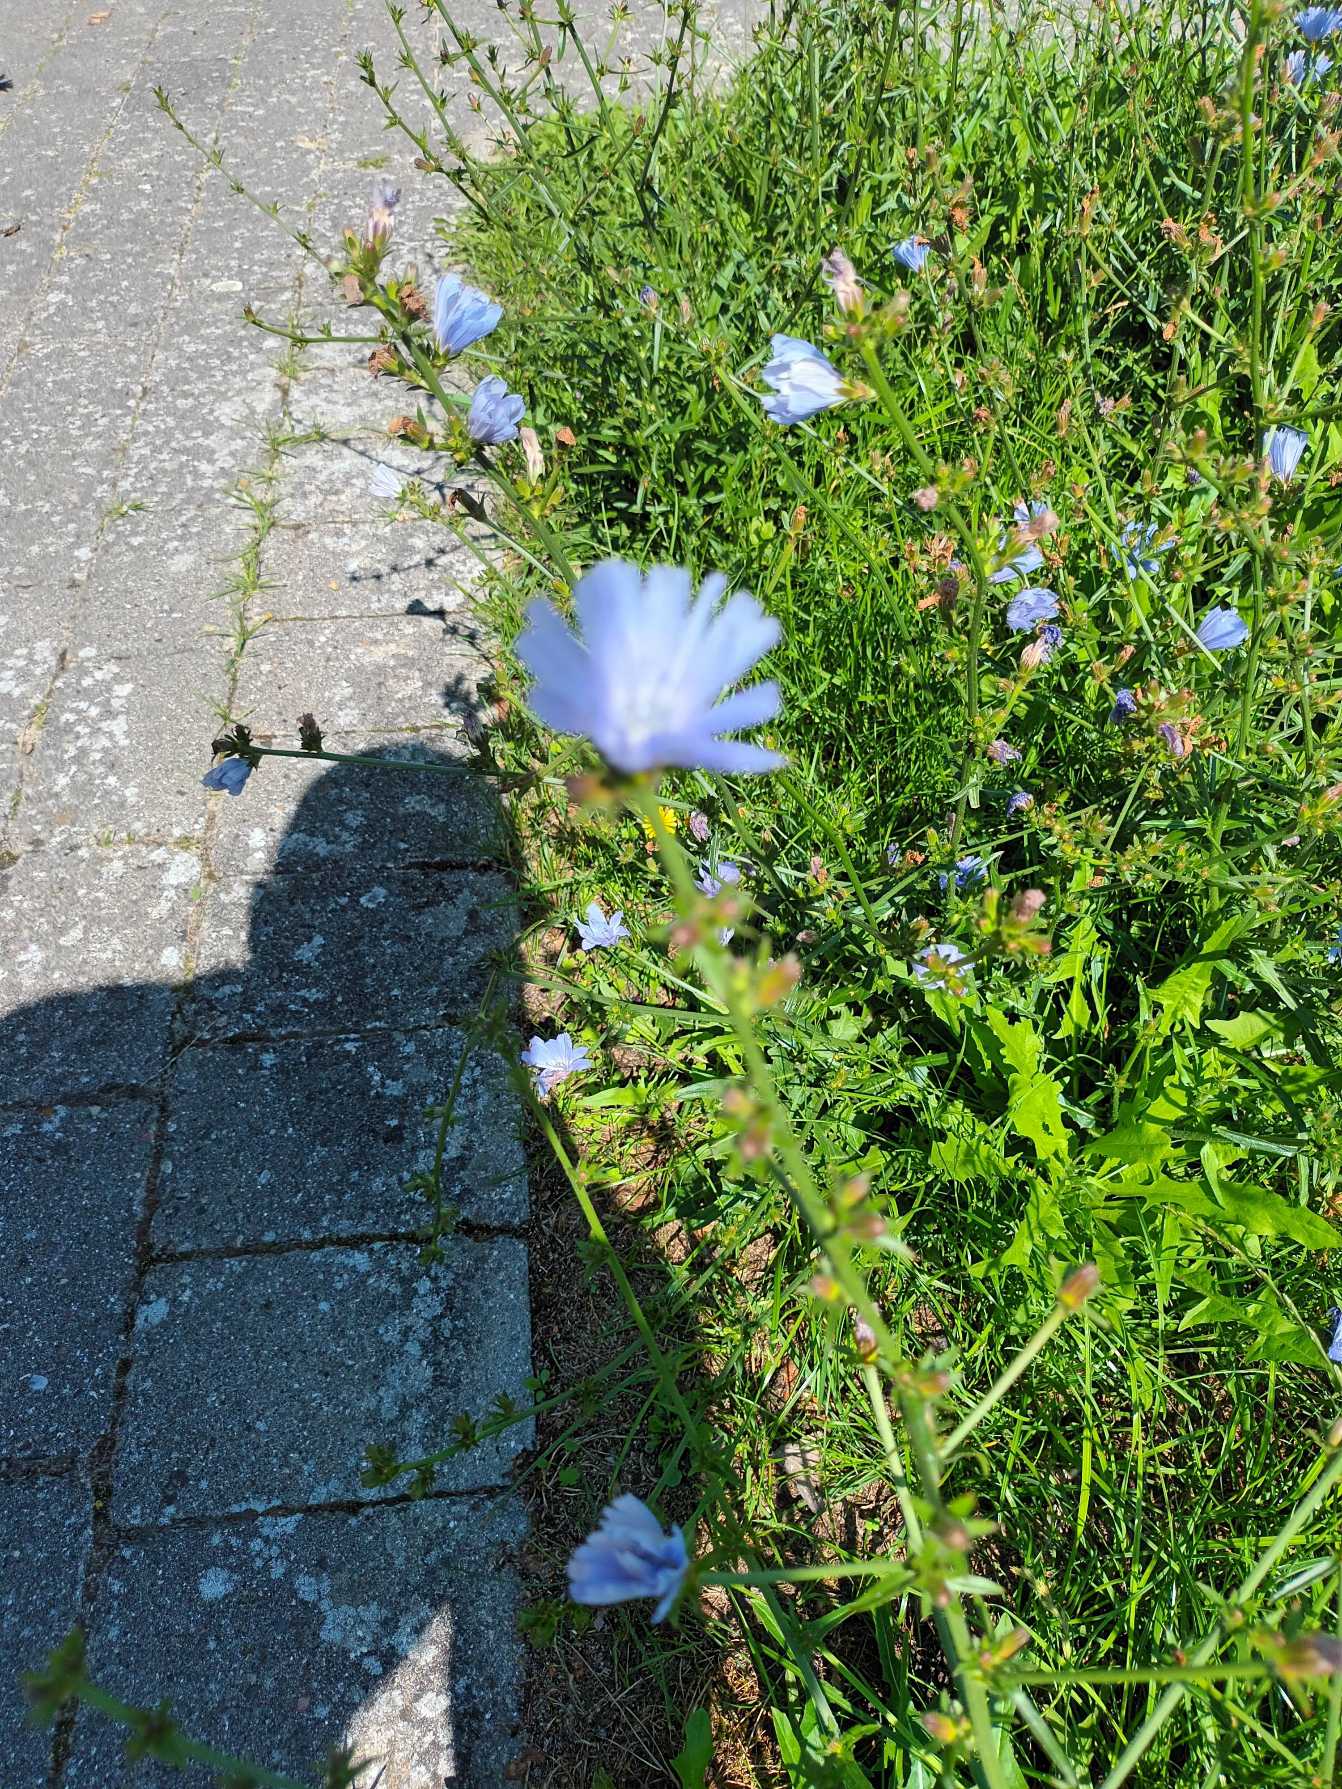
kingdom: Plantae
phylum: Tracheophyta
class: Magnoliopsida
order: Asterales
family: Asteraceae
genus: Cichorium
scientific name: Cichorium intybus
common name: Cikorie
